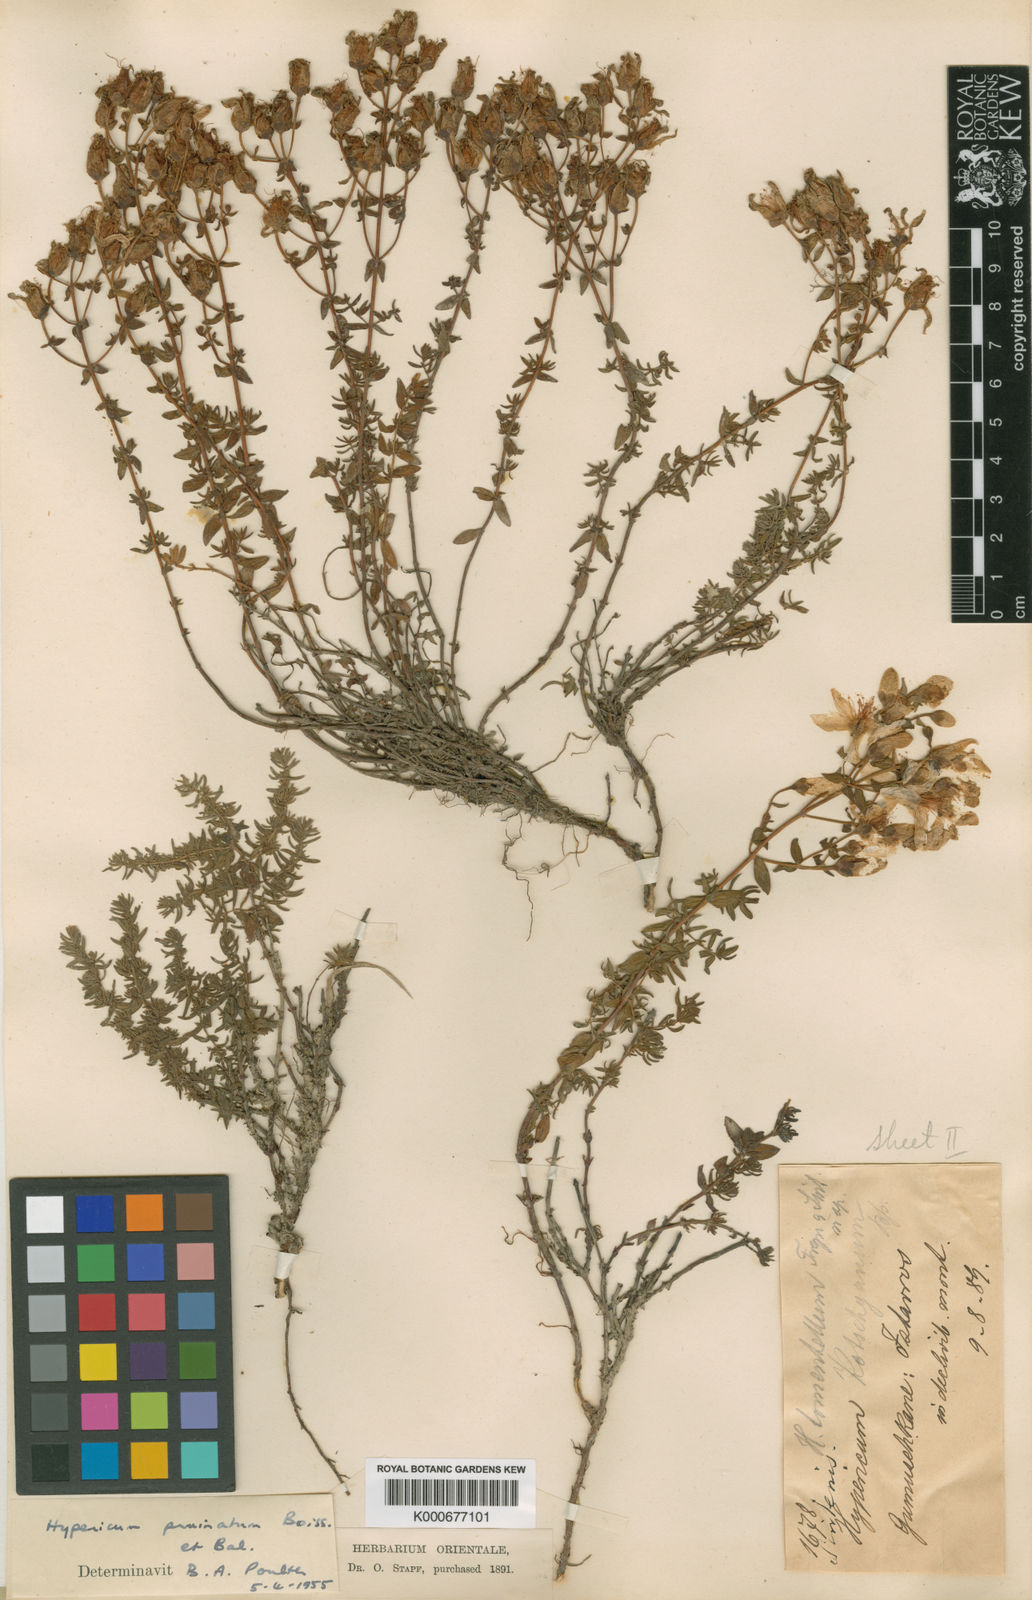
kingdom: Plantae
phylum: Tracheophyta
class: Magnoliopsida
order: Malpighiales
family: Hypericaceae
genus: Hypericum
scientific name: Hypericum pruinatum
